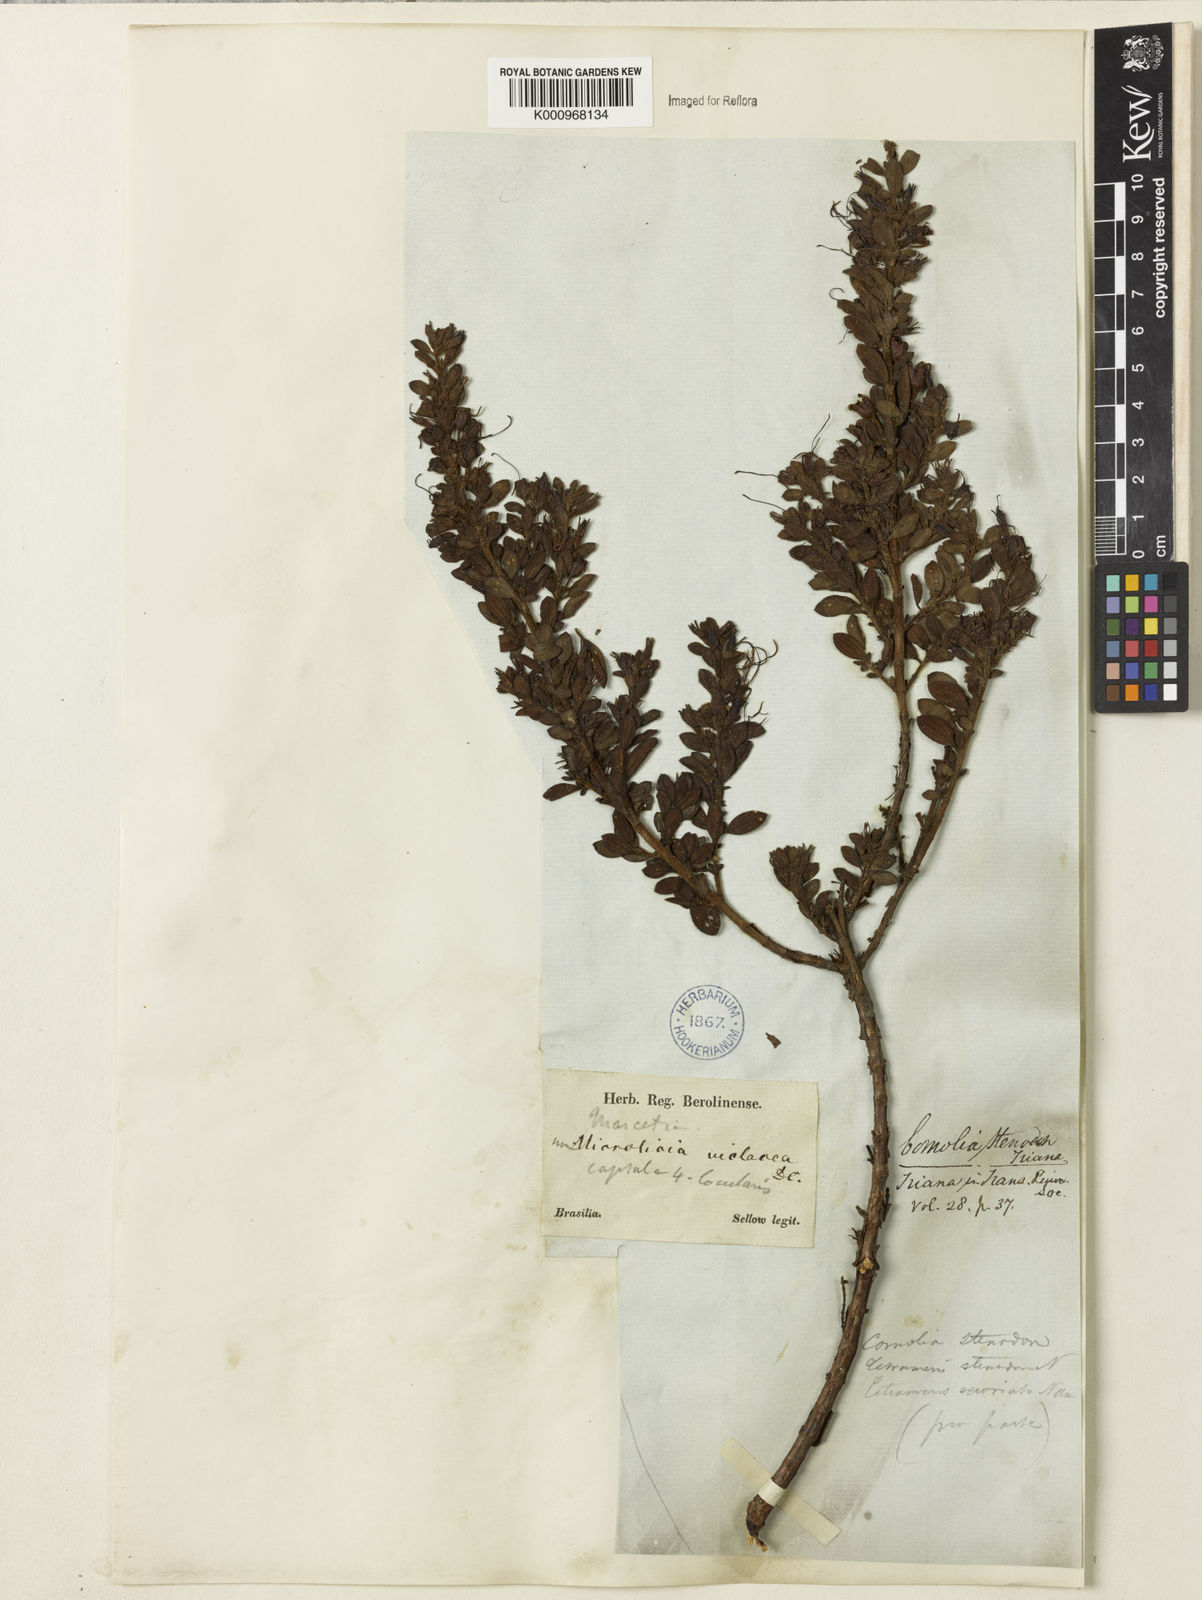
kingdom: Plantae
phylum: Tracheophyta
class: Magnoliopsida
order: Myrtales
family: Melastomataceae
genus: Fritzschia
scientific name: Fritzschia stenodon
